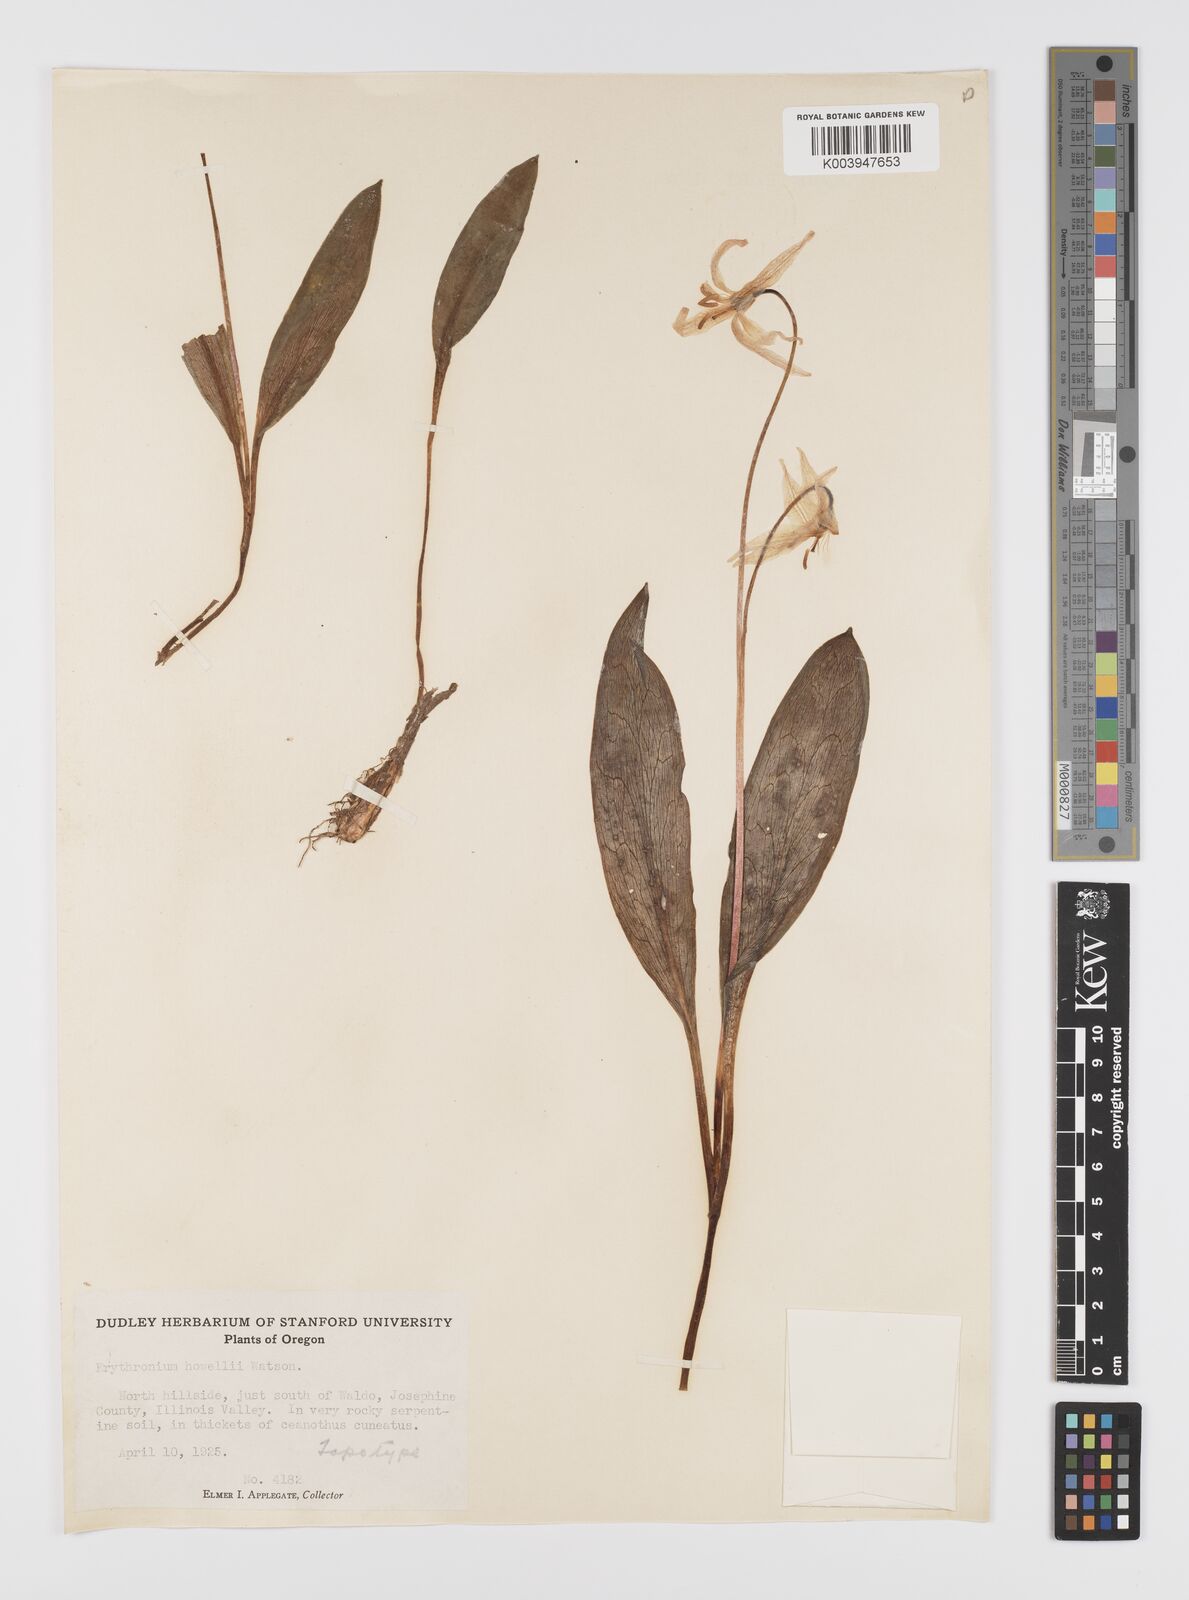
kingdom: Plantae
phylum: Tracheophyta
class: Liliopsida
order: Liliales
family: Liliaceae
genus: Erythronium
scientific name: Erythronium howellii
